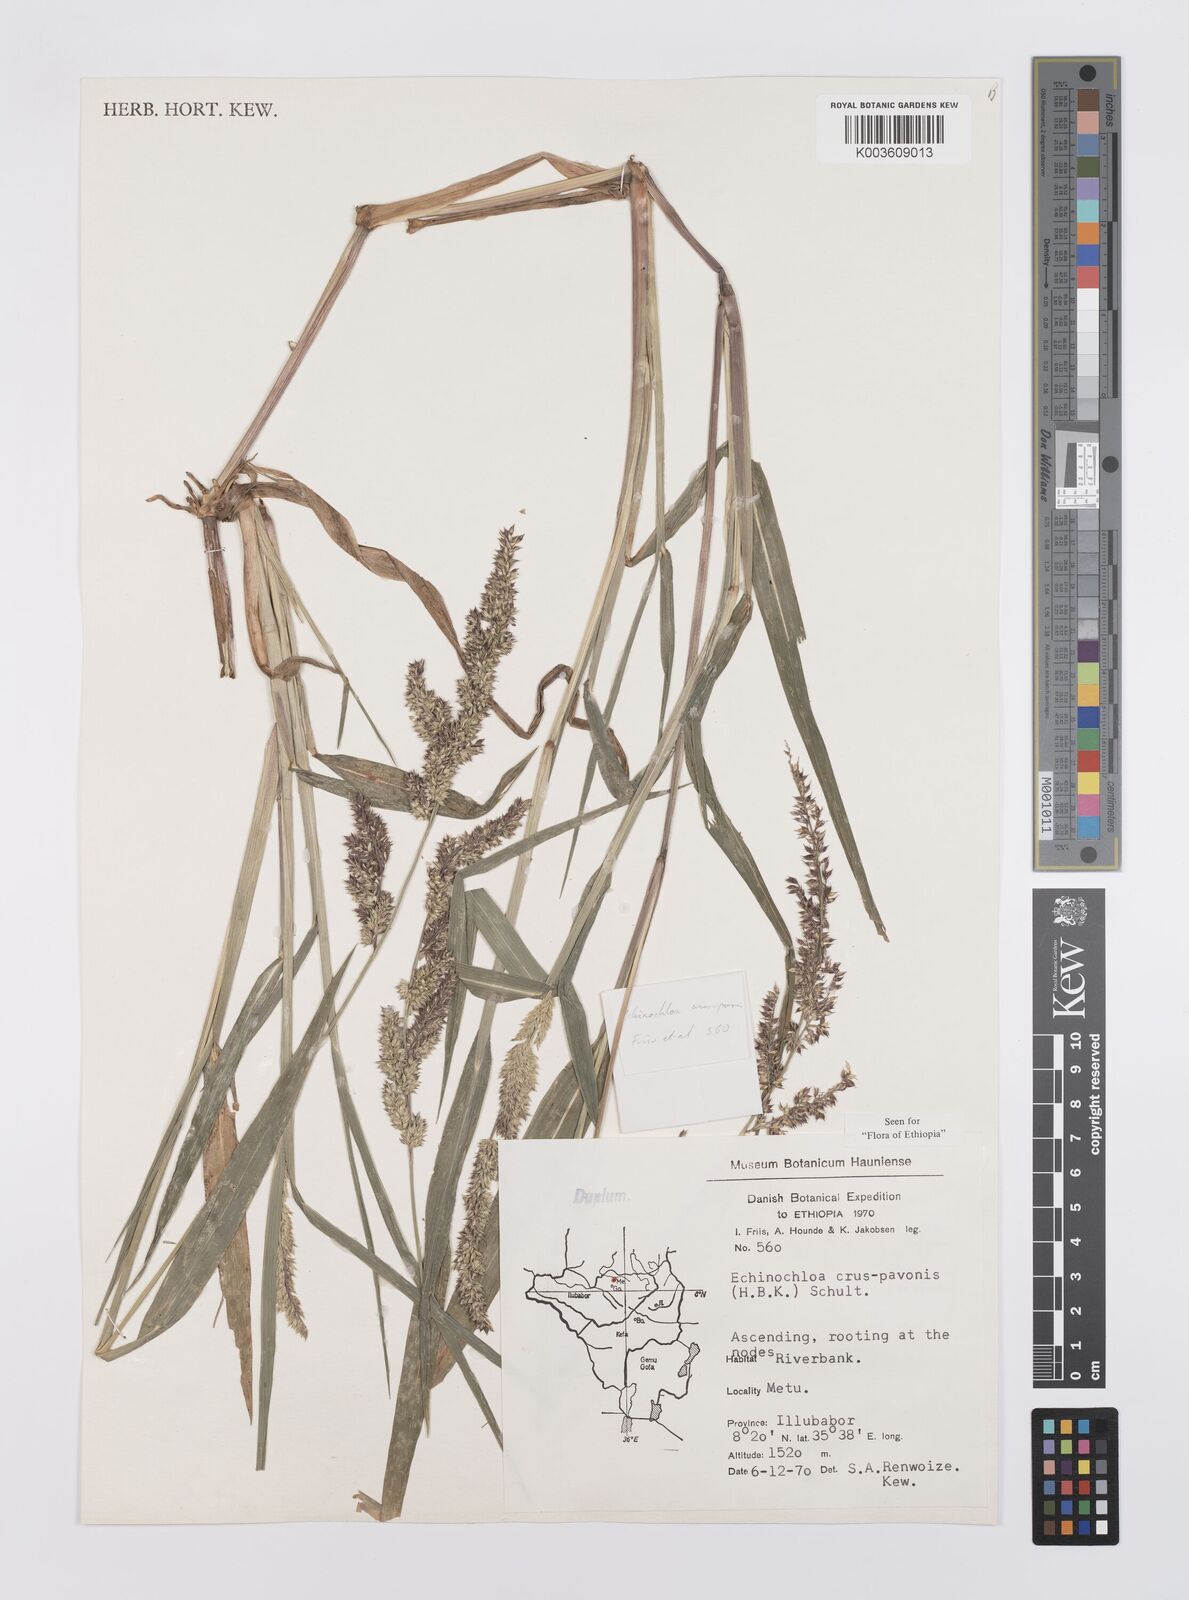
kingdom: Plantae
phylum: Tracheophyta
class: Liliopsida
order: Poales
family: Poaceae
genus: Echinochloa
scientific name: Echinochloa crus-pavonis
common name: Gulf cockspur grass
